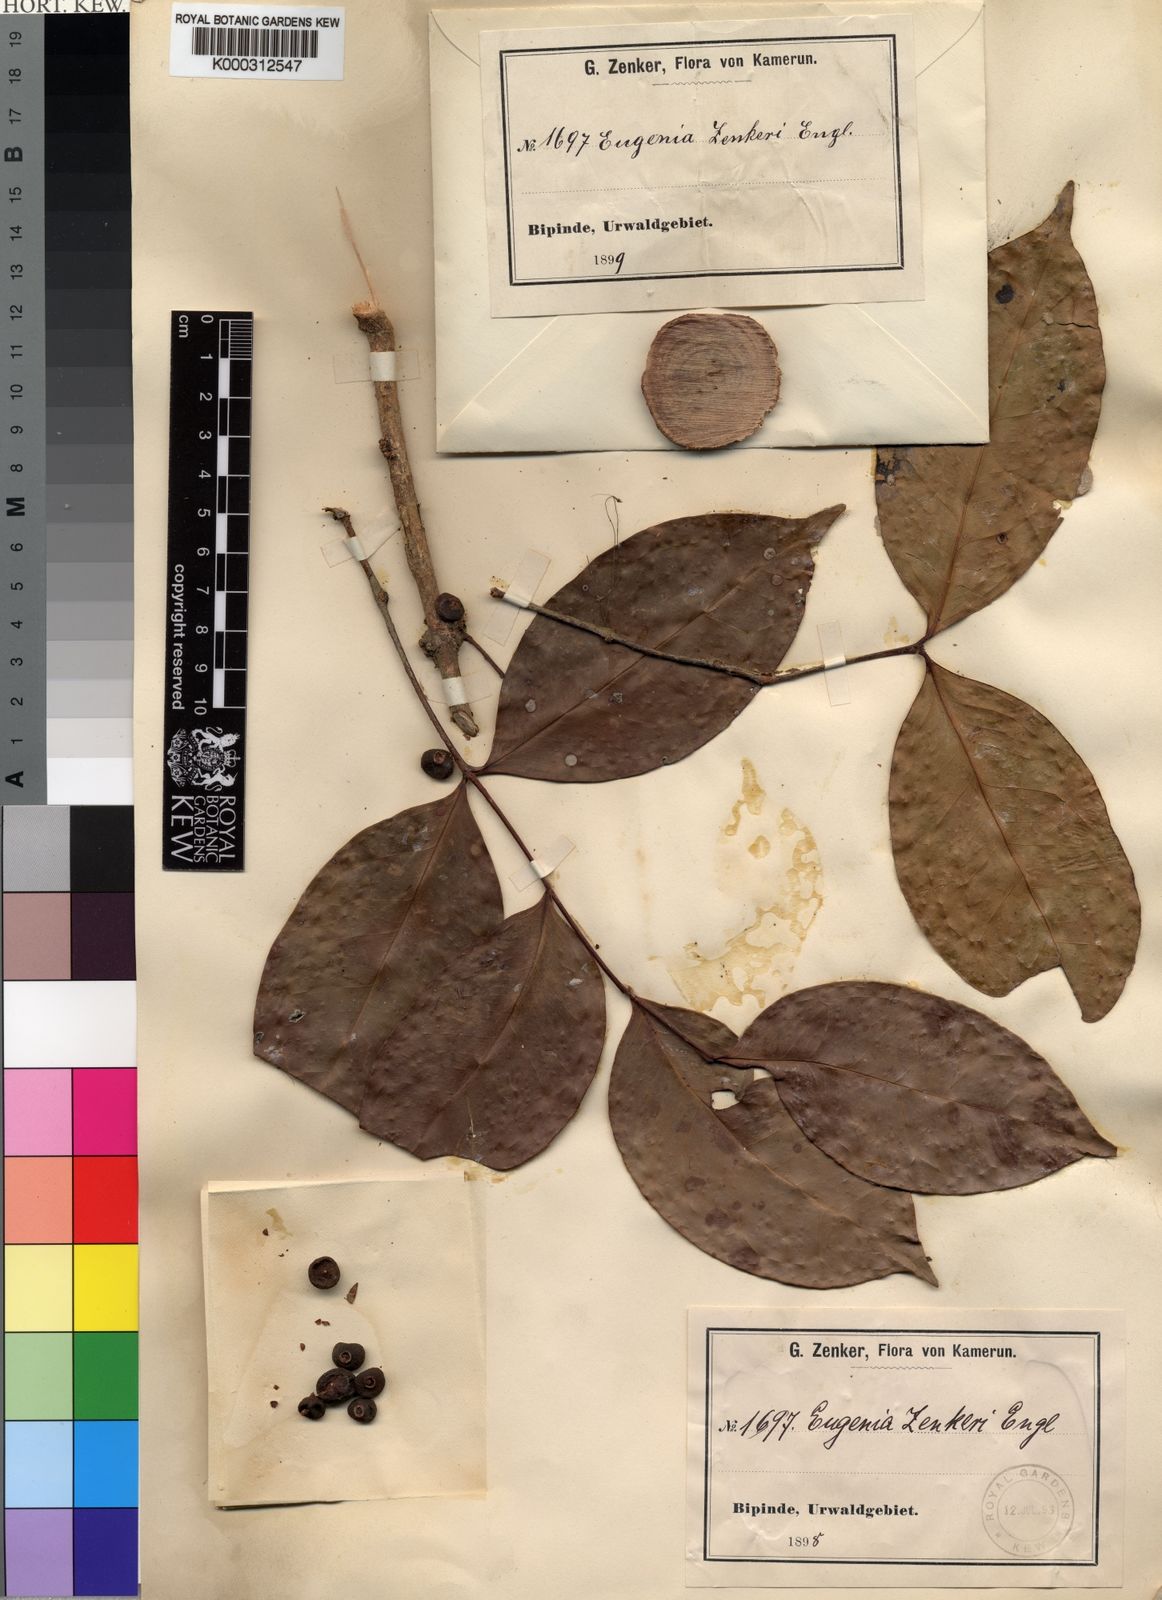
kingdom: Plantae
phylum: Tracheophyta
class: Magnoliopsida
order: Myrtales
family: Myrtaceae
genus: Eugenia
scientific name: Eugenia zenkeri
